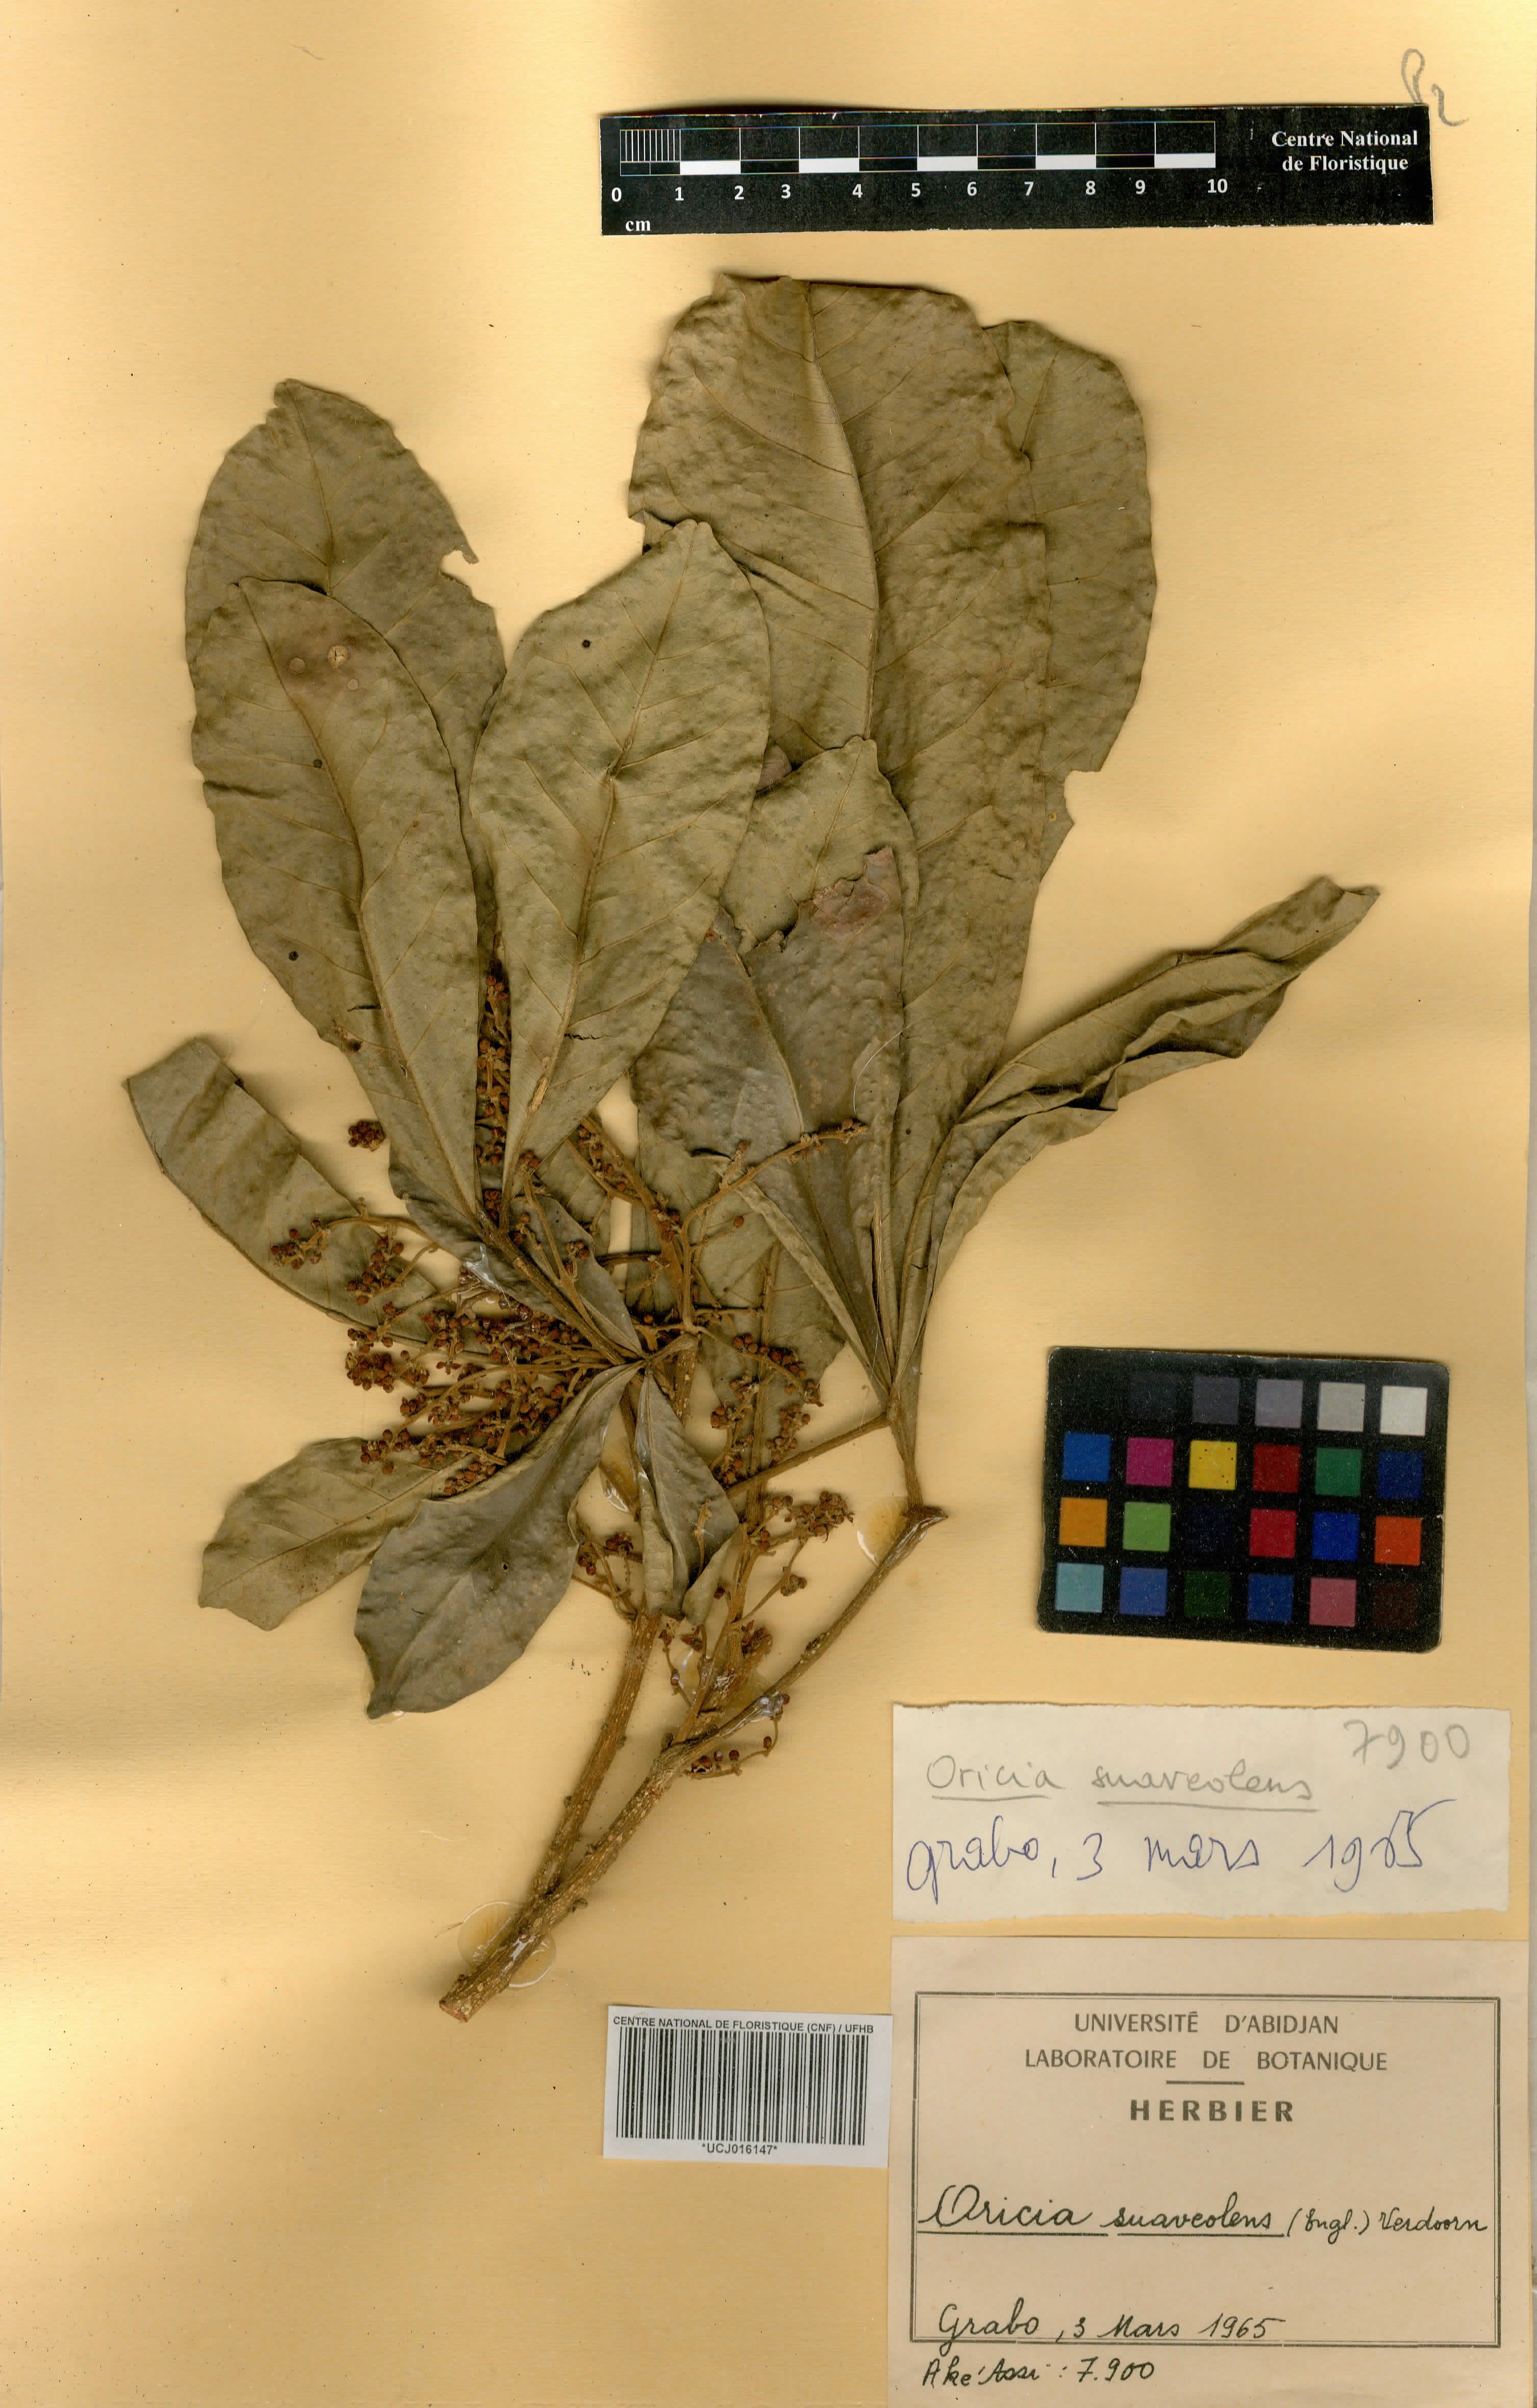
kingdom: Plantae
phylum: Tracheophyta
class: Magnoliopsida
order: Sapindales
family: Rutaceae
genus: Vepris
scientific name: Vepris suaveolens
